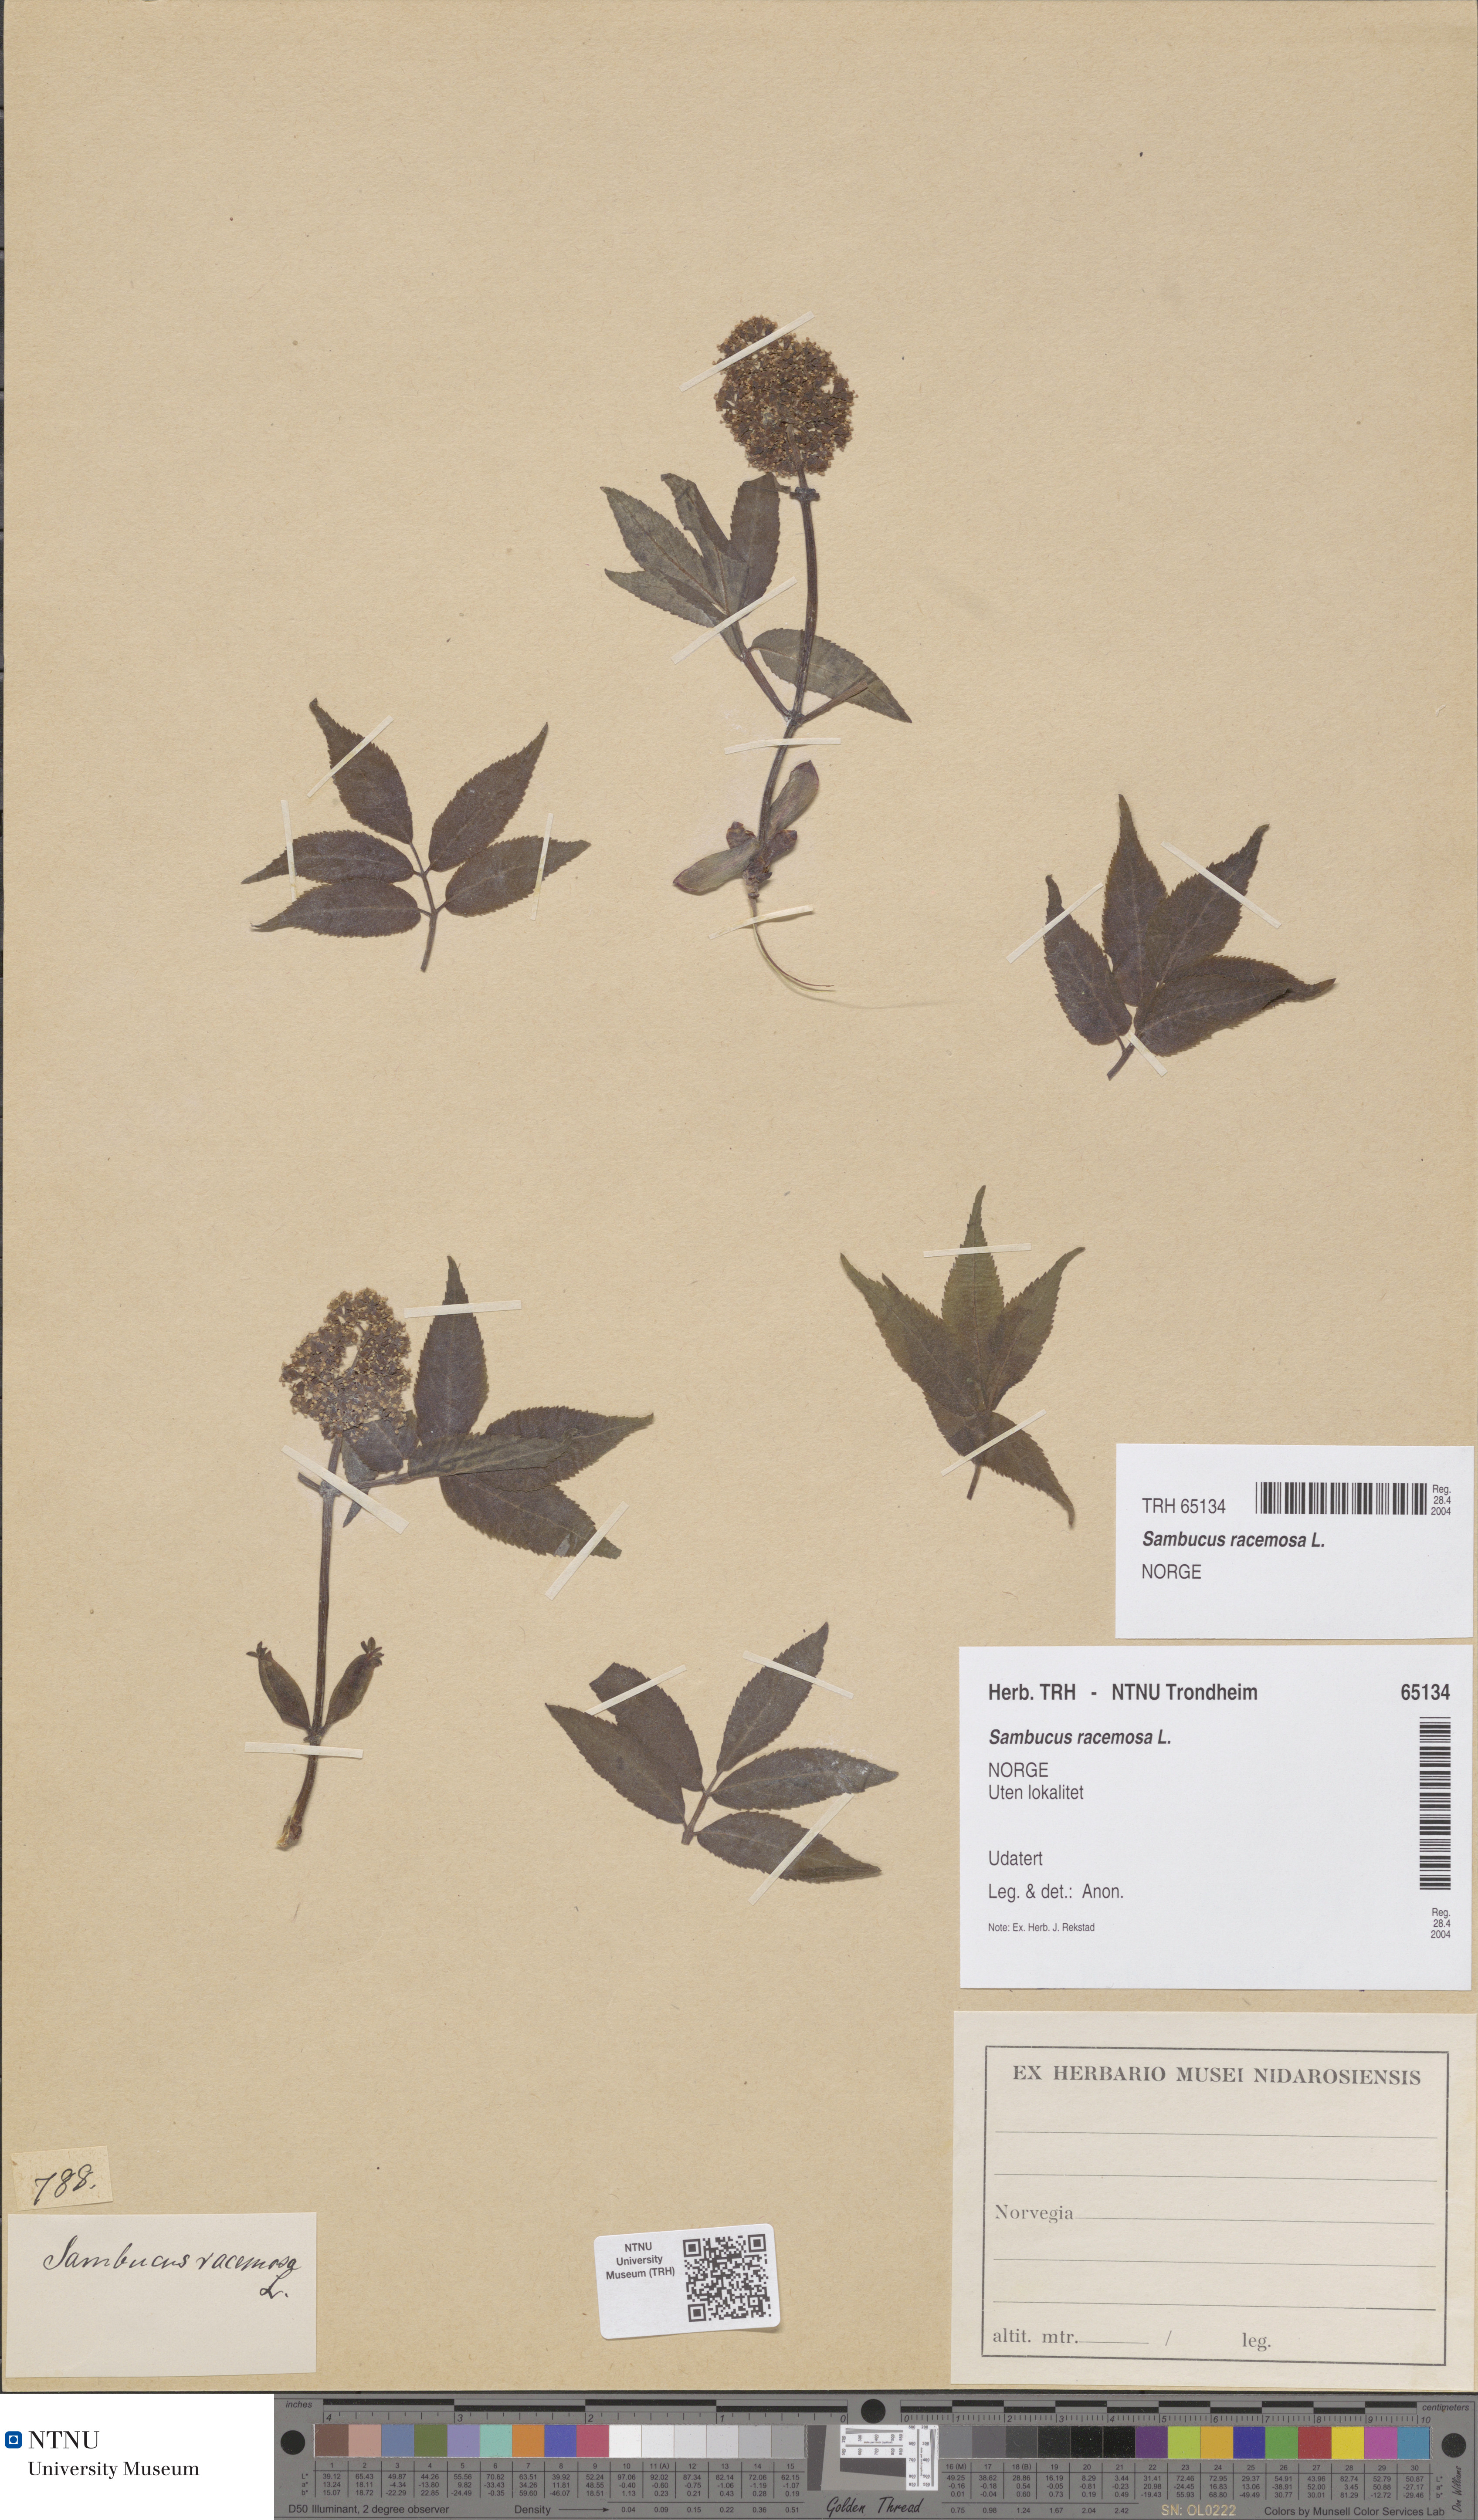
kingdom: Plantae
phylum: Tracheophyta
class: Magnoliopsida
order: Dipsacales
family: Viburnaceae
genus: Sambucus
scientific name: Sambucus racemosa
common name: Red-berried elder
